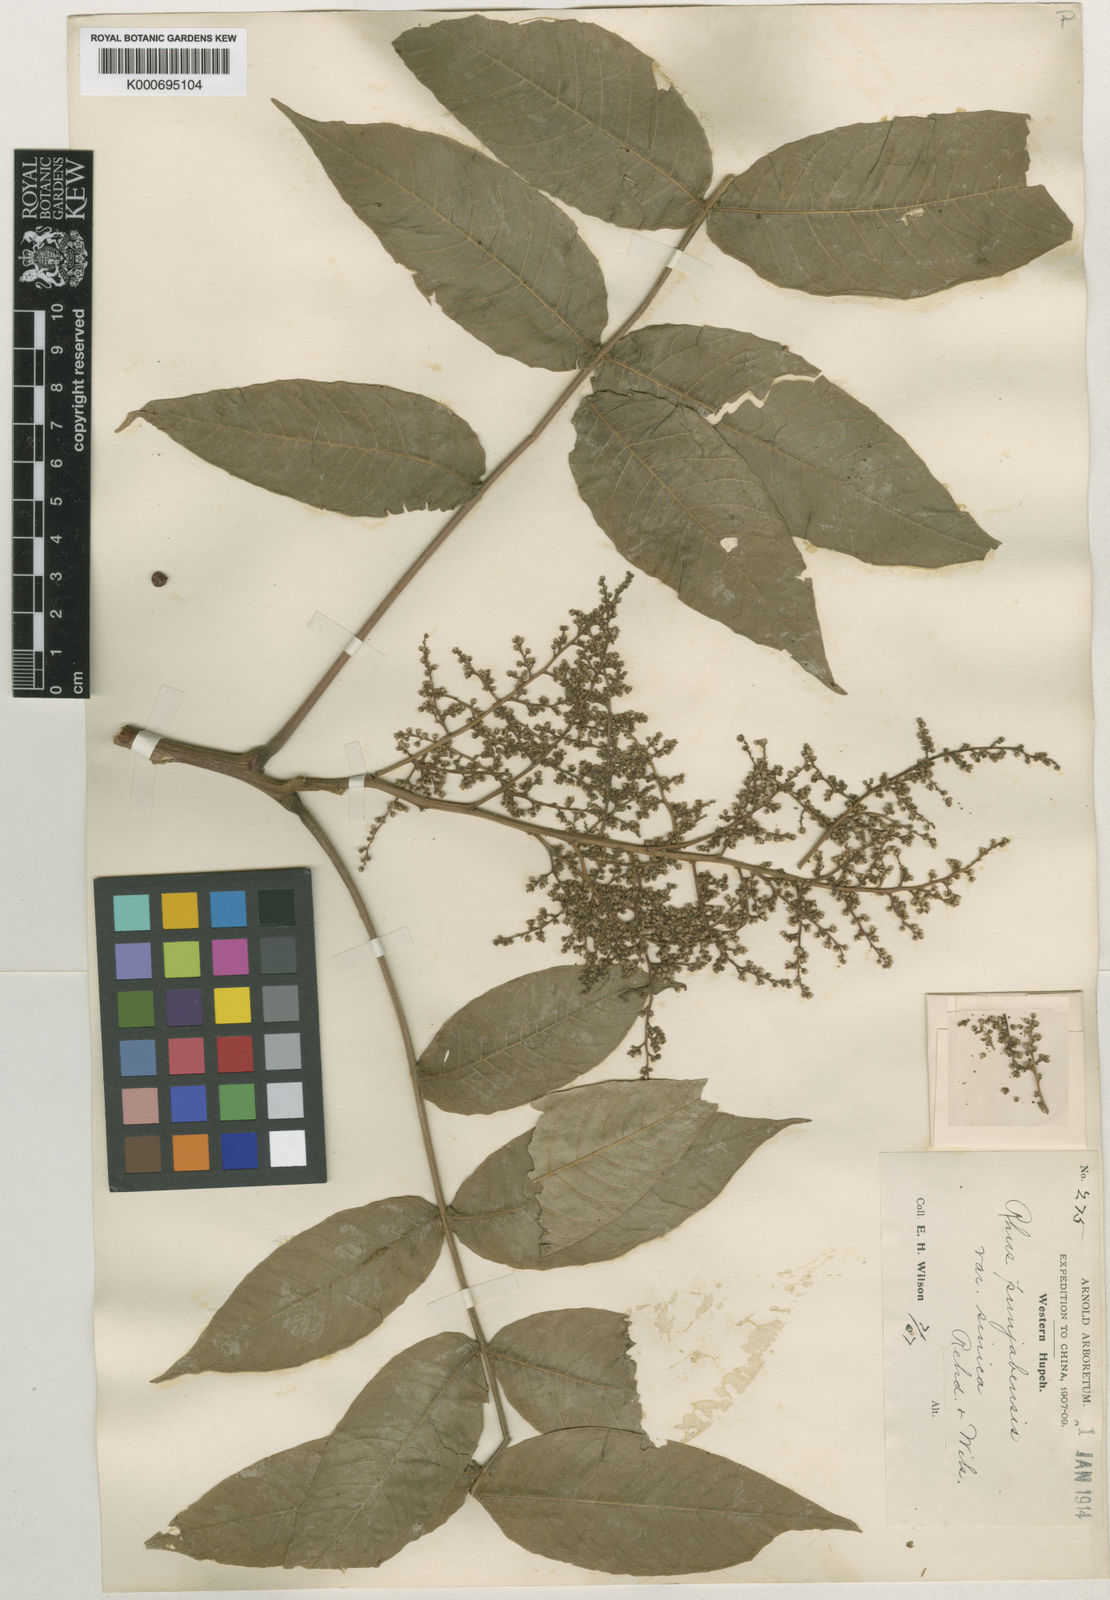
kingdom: Plantae
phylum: Tracheophyta
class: Magnoliopsida
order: Sapindales
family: Anacardiaceae
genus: Rhus
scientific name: Rhus punjabensis
